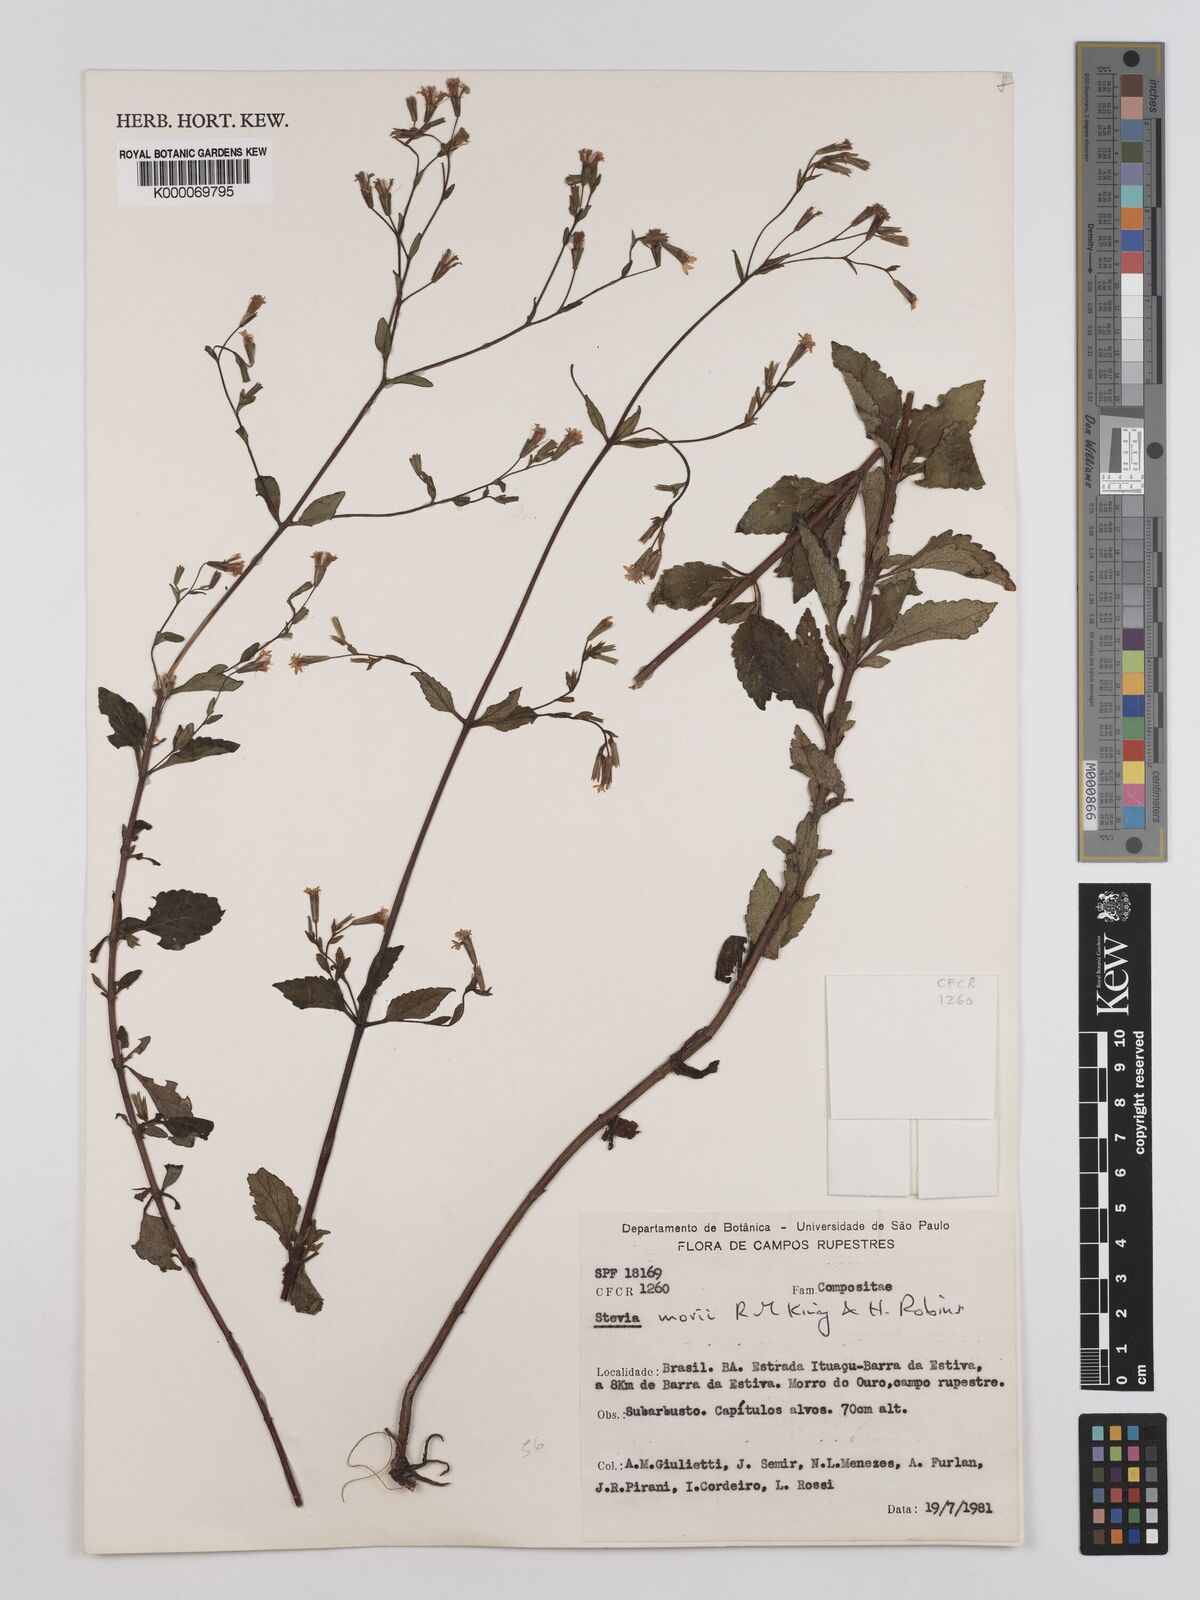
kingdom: Plantae
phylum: Tracheophyta
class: Magnoliopsida
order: Asterales
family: Asteraceae
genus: Stevia
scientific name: Stevia morii
